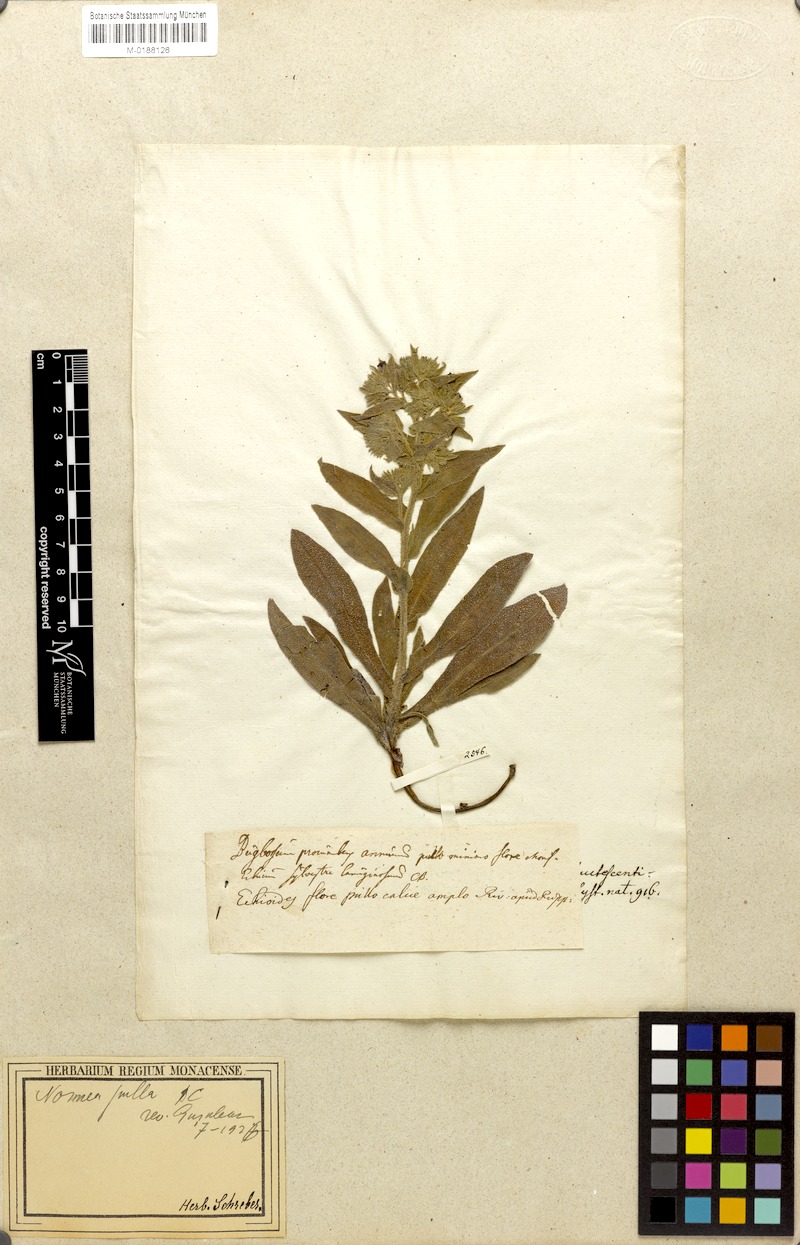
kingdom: Plantae
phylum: Tracheophyta
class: Magnoliopsida
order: Boraginales
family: Boraginaceae
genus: Nonea
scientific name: Nonea pulla
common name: Brown nonea
